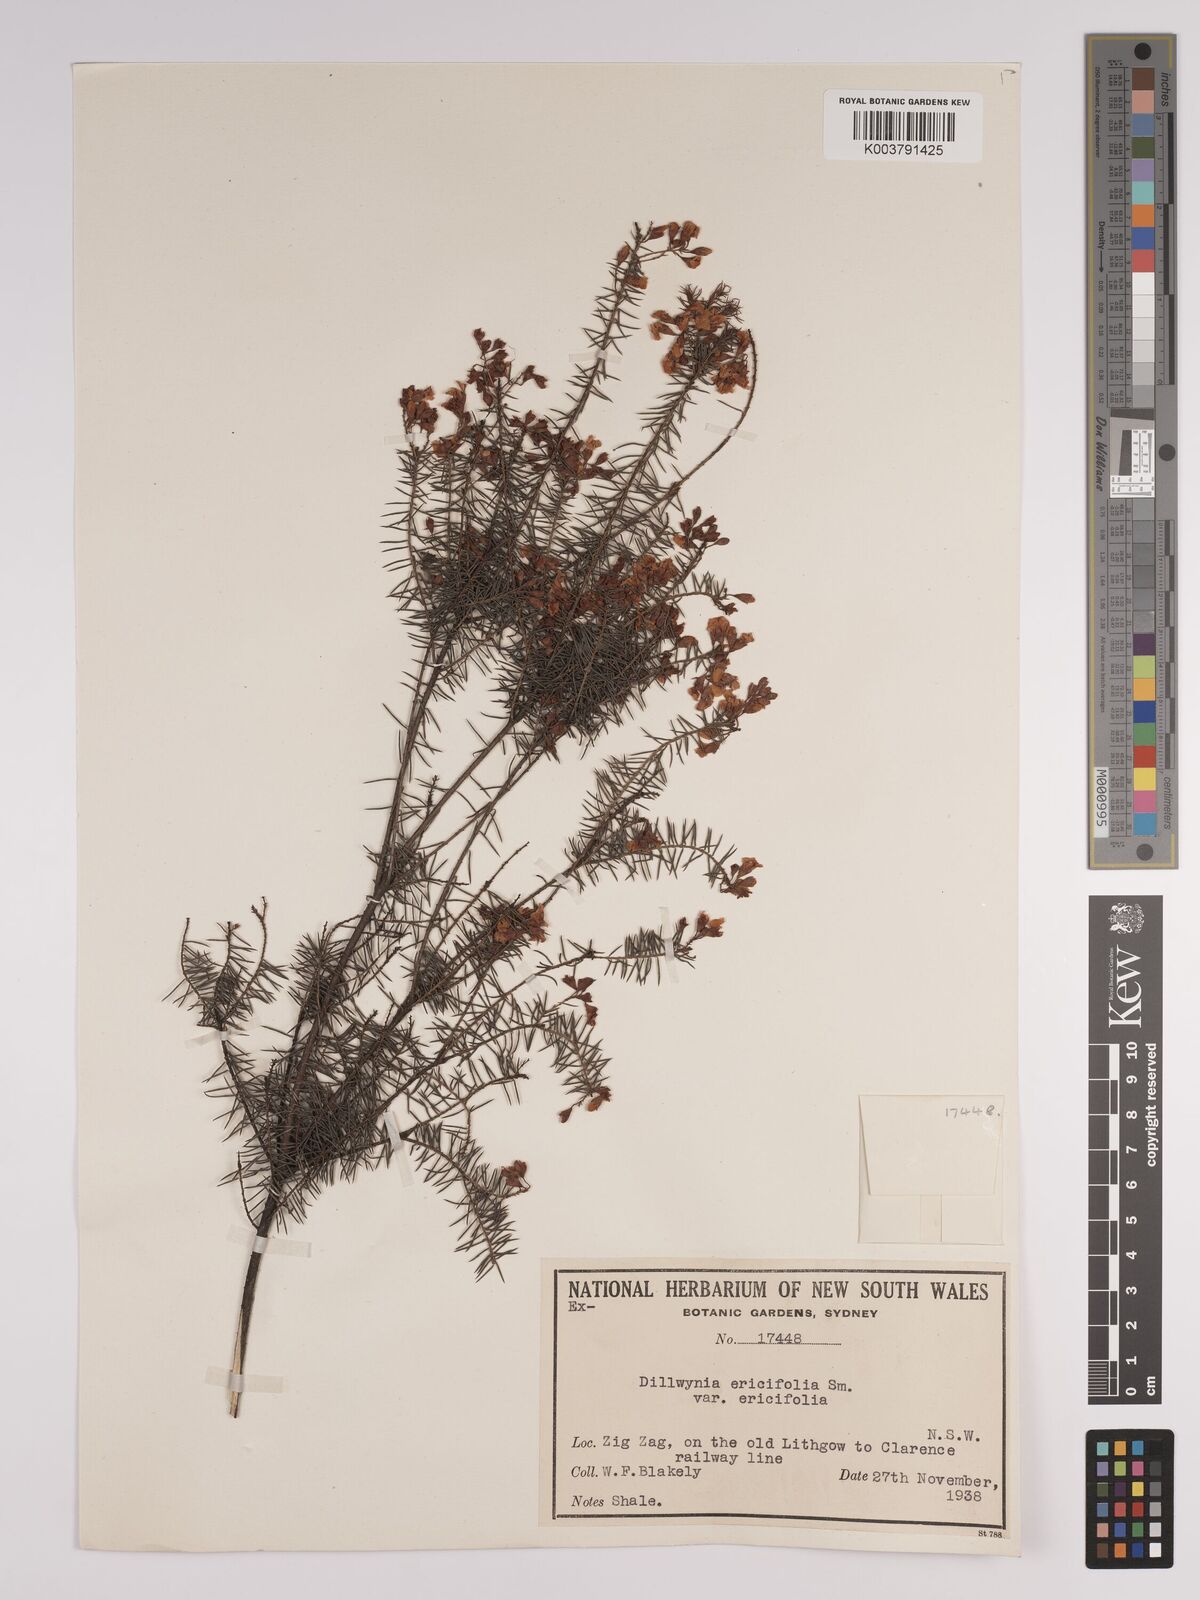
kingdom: Plantae
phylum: Tracheophyta
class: Magnoliopsida
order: Fabales
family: Fabaceae
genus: Dillwynia
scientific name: Dillwynia retorta
